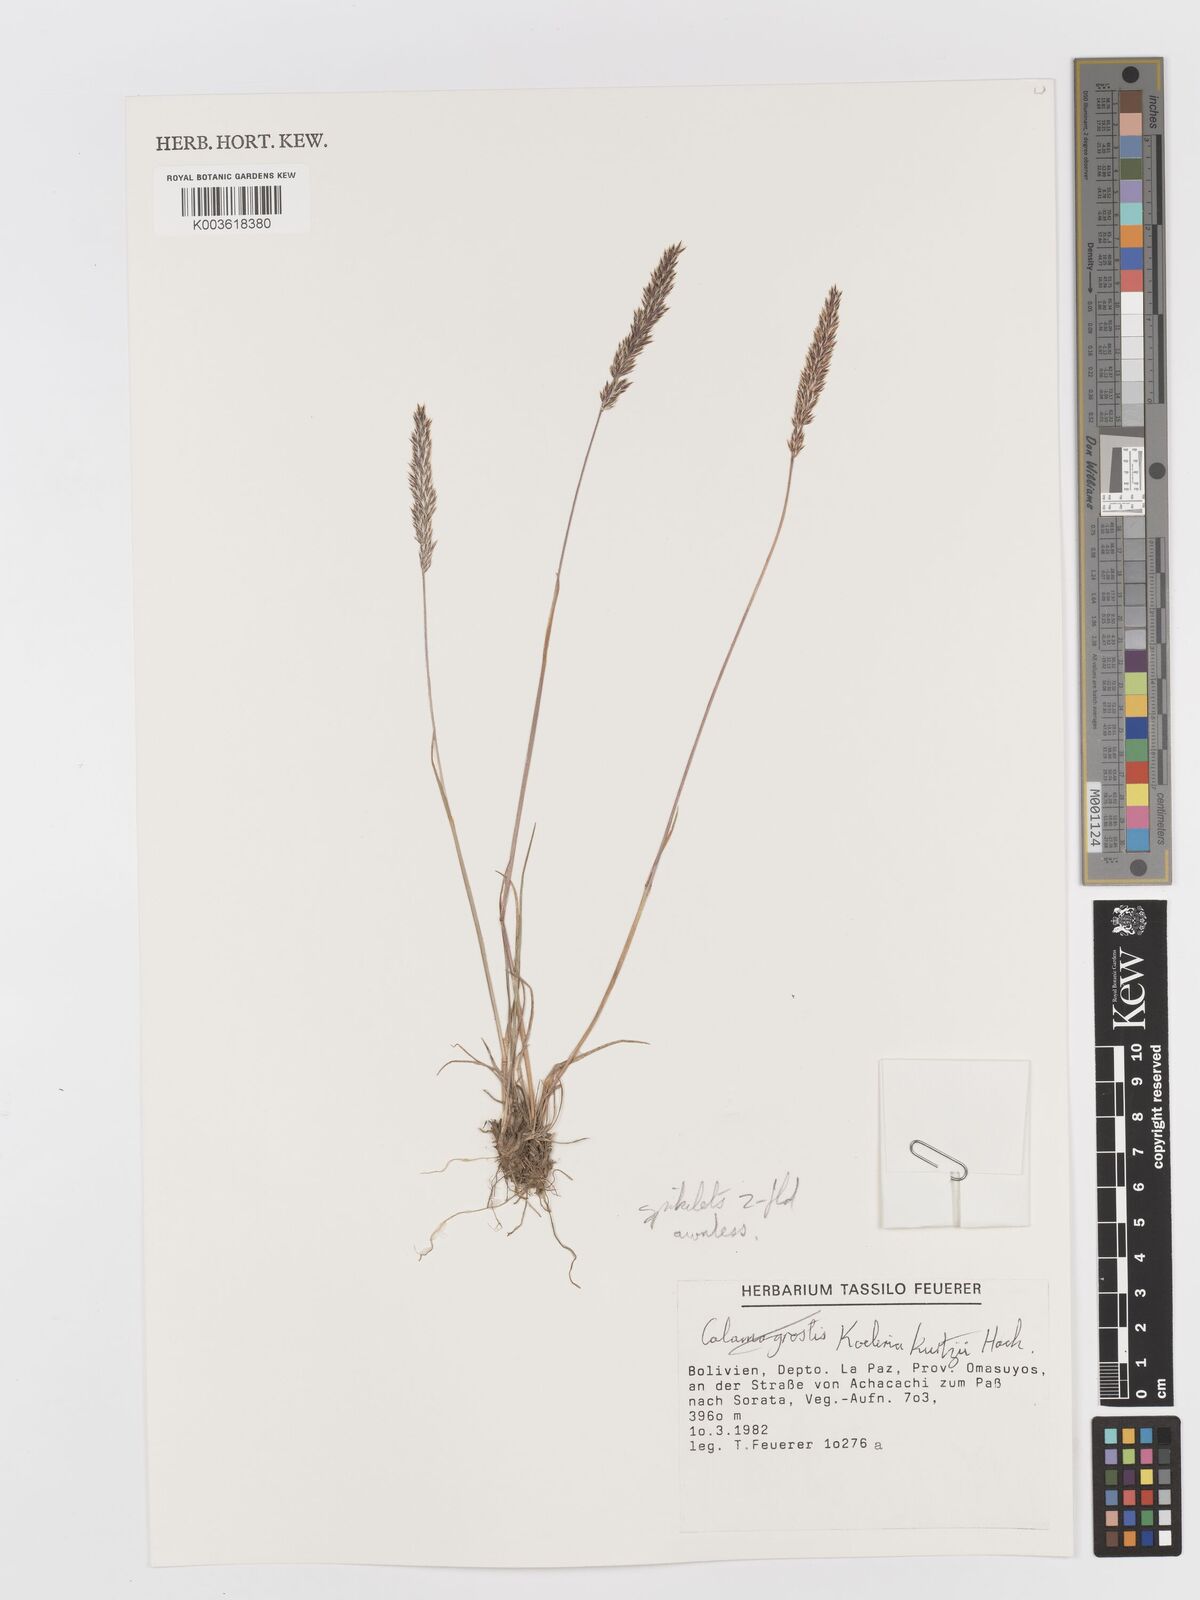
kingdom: Plantae
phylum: Tracheophyta
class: Liliopsida
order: Poales
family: Poaceae
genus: Koeleria
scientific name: Koeleria kurtzii
